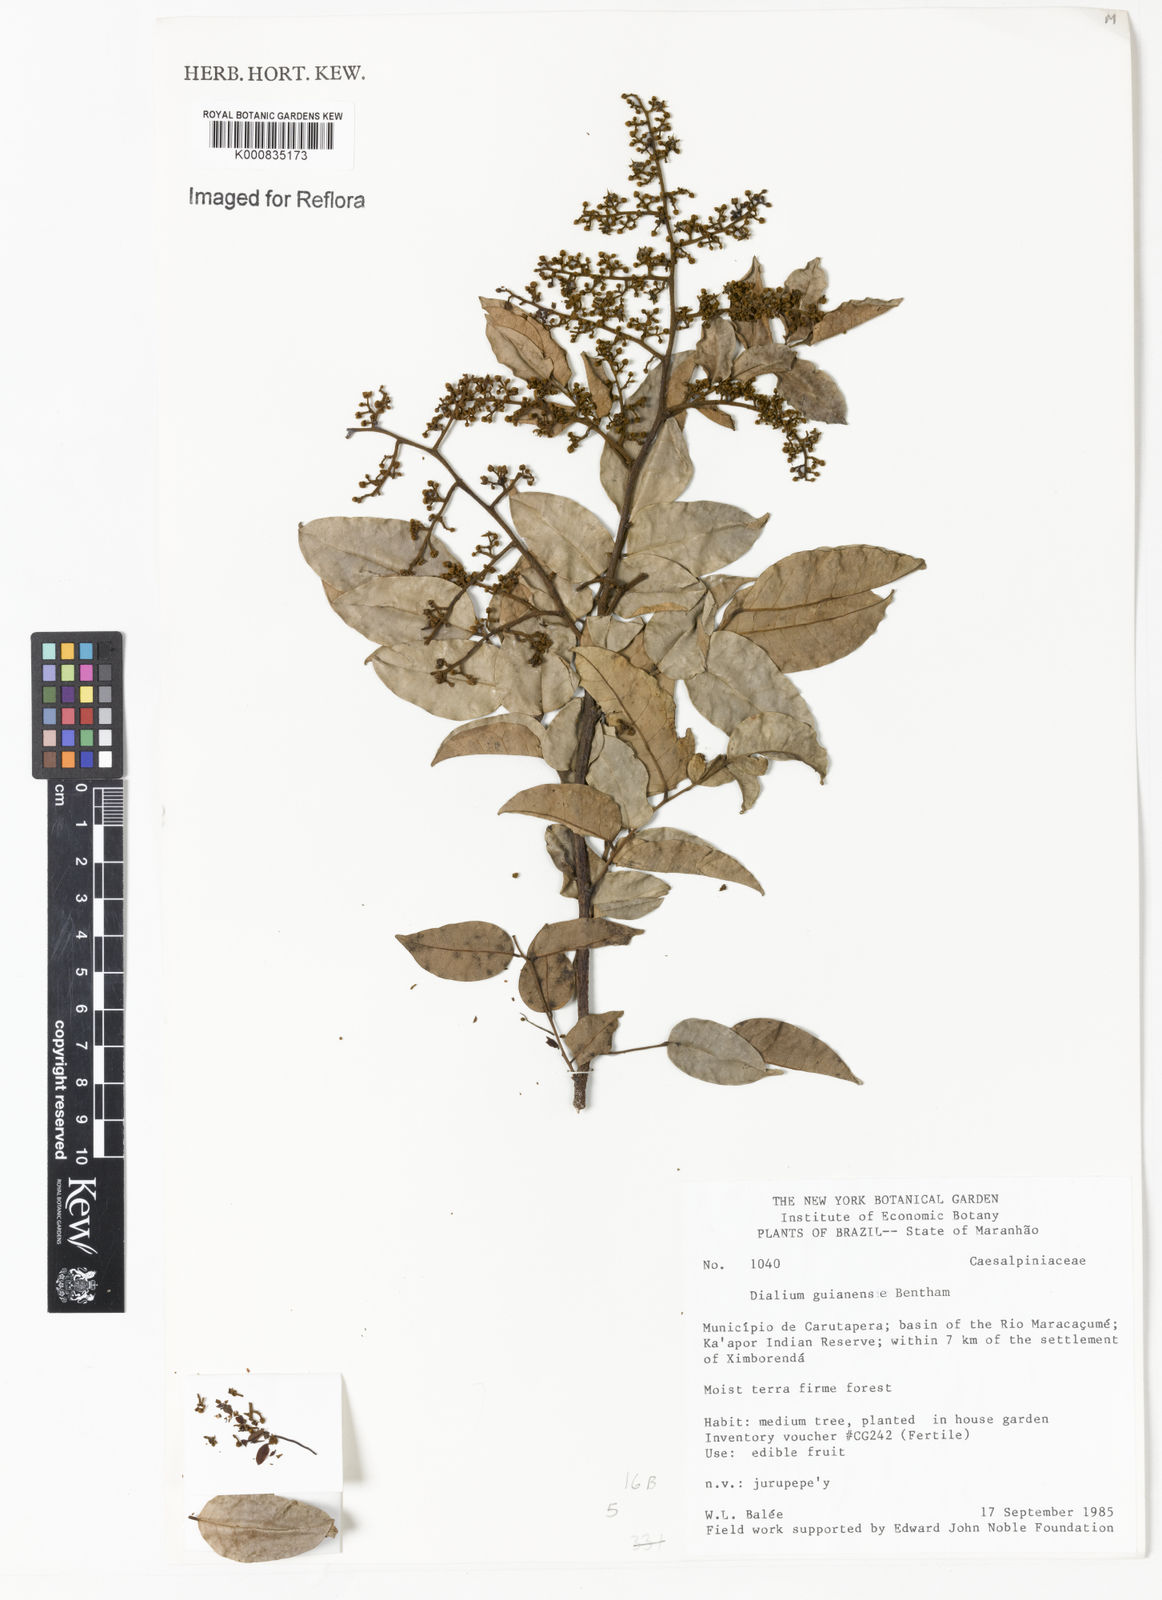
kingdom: Plantae
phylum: Tracheophyta
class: Magnoliopsida
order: Fabales
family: Fabaceae
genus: Dialium
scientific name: Dialium guianense
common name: Ironwood
